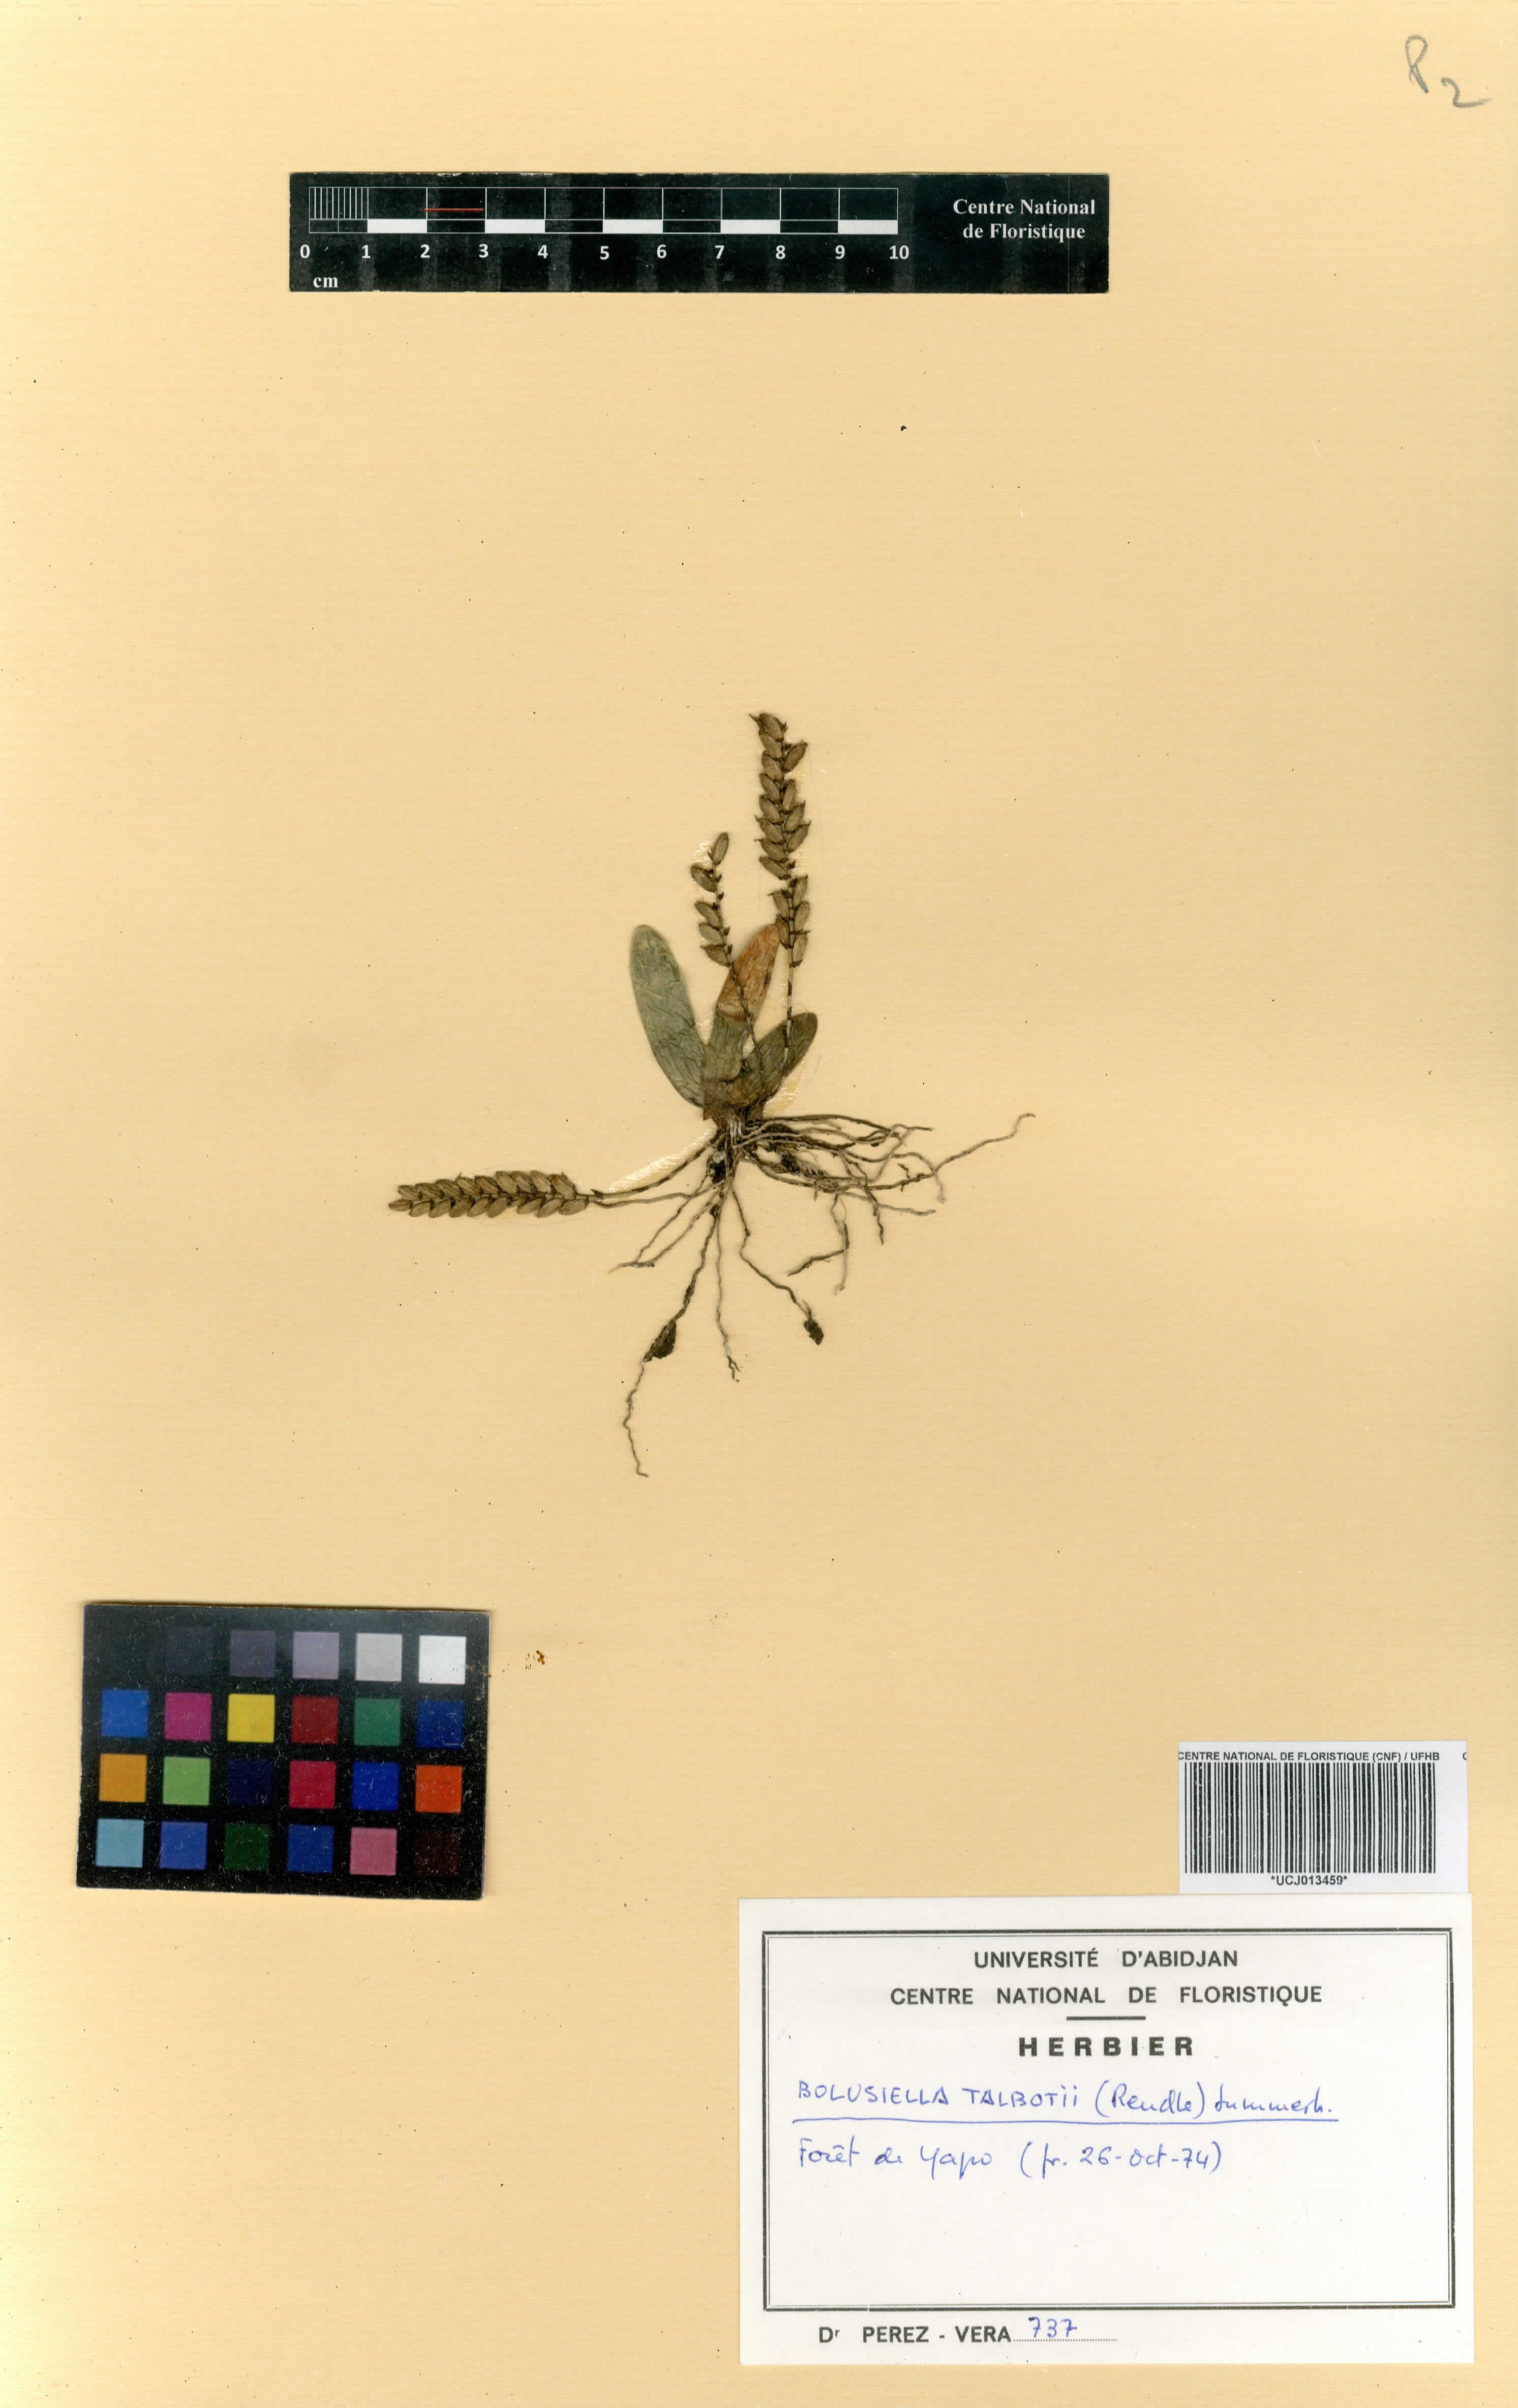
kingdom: Plantae
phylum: Tracheophyta
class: Liliopsida
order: Asparagales
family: Orchidaceae
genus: Bolusiella
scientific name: Bolusiella talbotii
